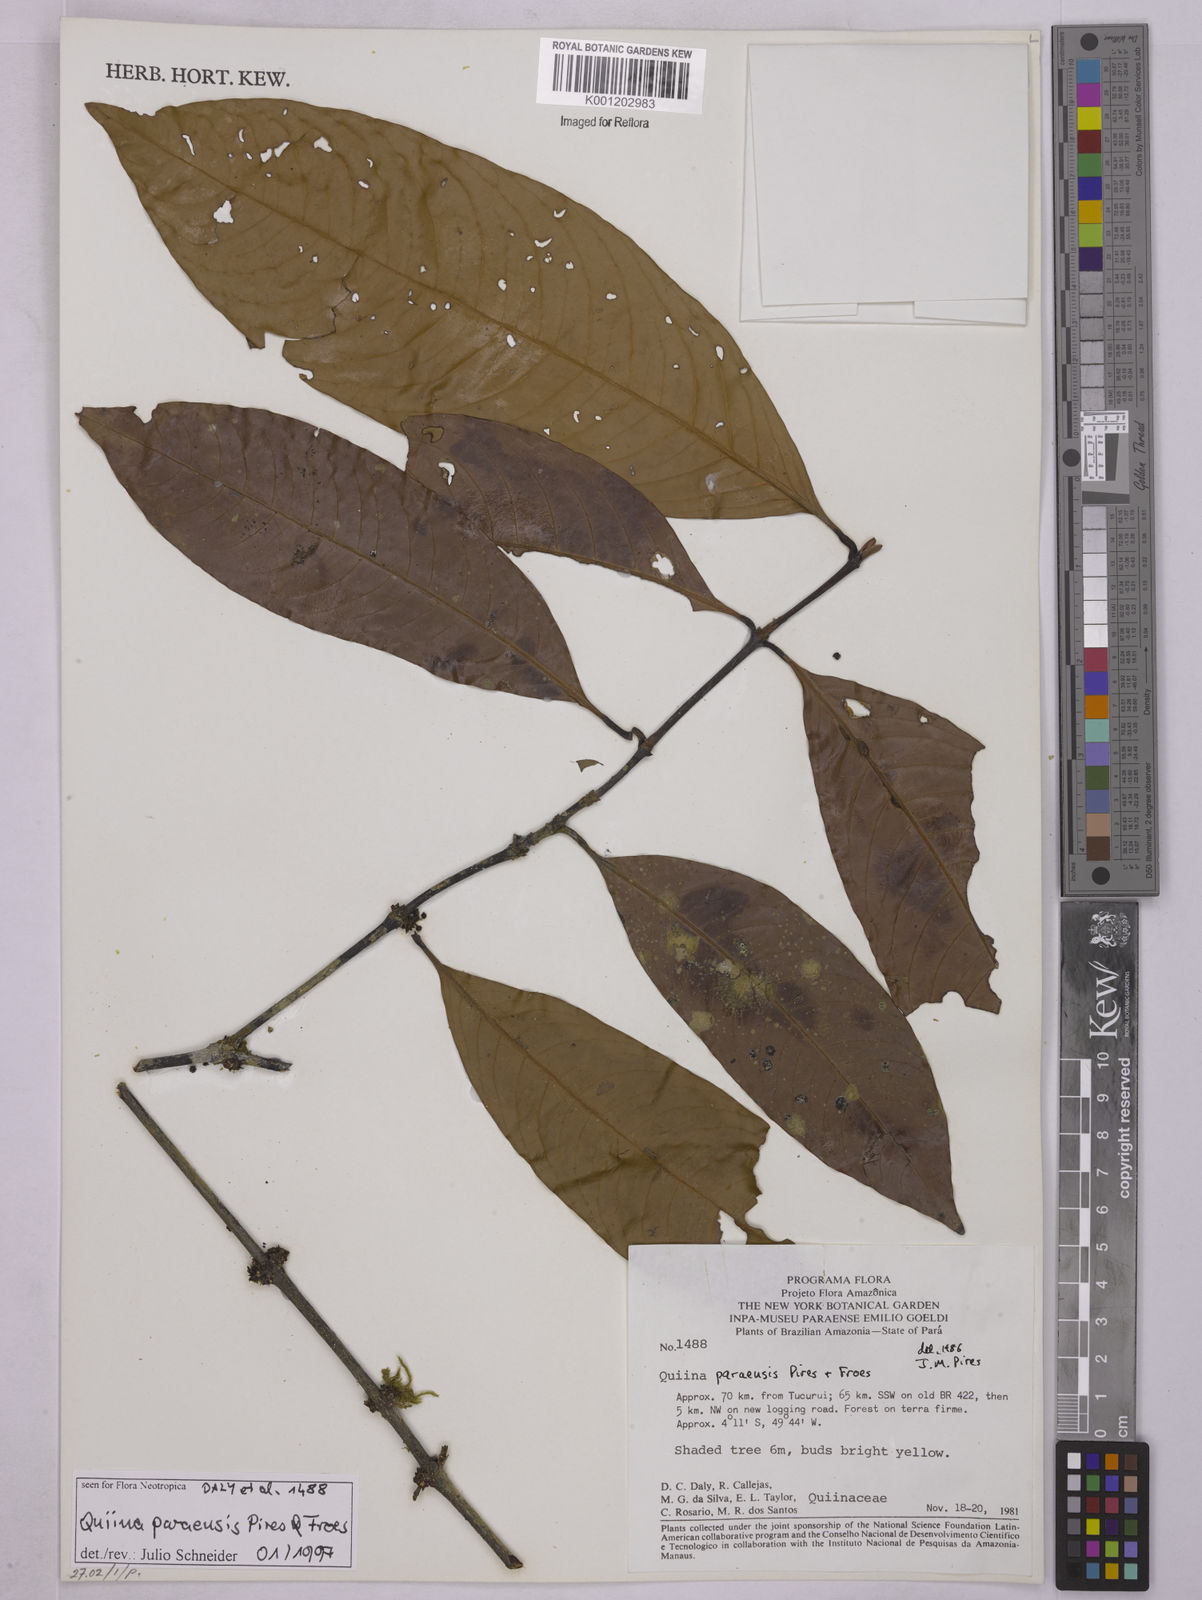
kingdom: Plantae
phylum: Tracheophyta
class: Magnoliopsida
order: Malpighiales
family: Quiinaceae
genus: Quiina
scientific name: Quiina paraensis
